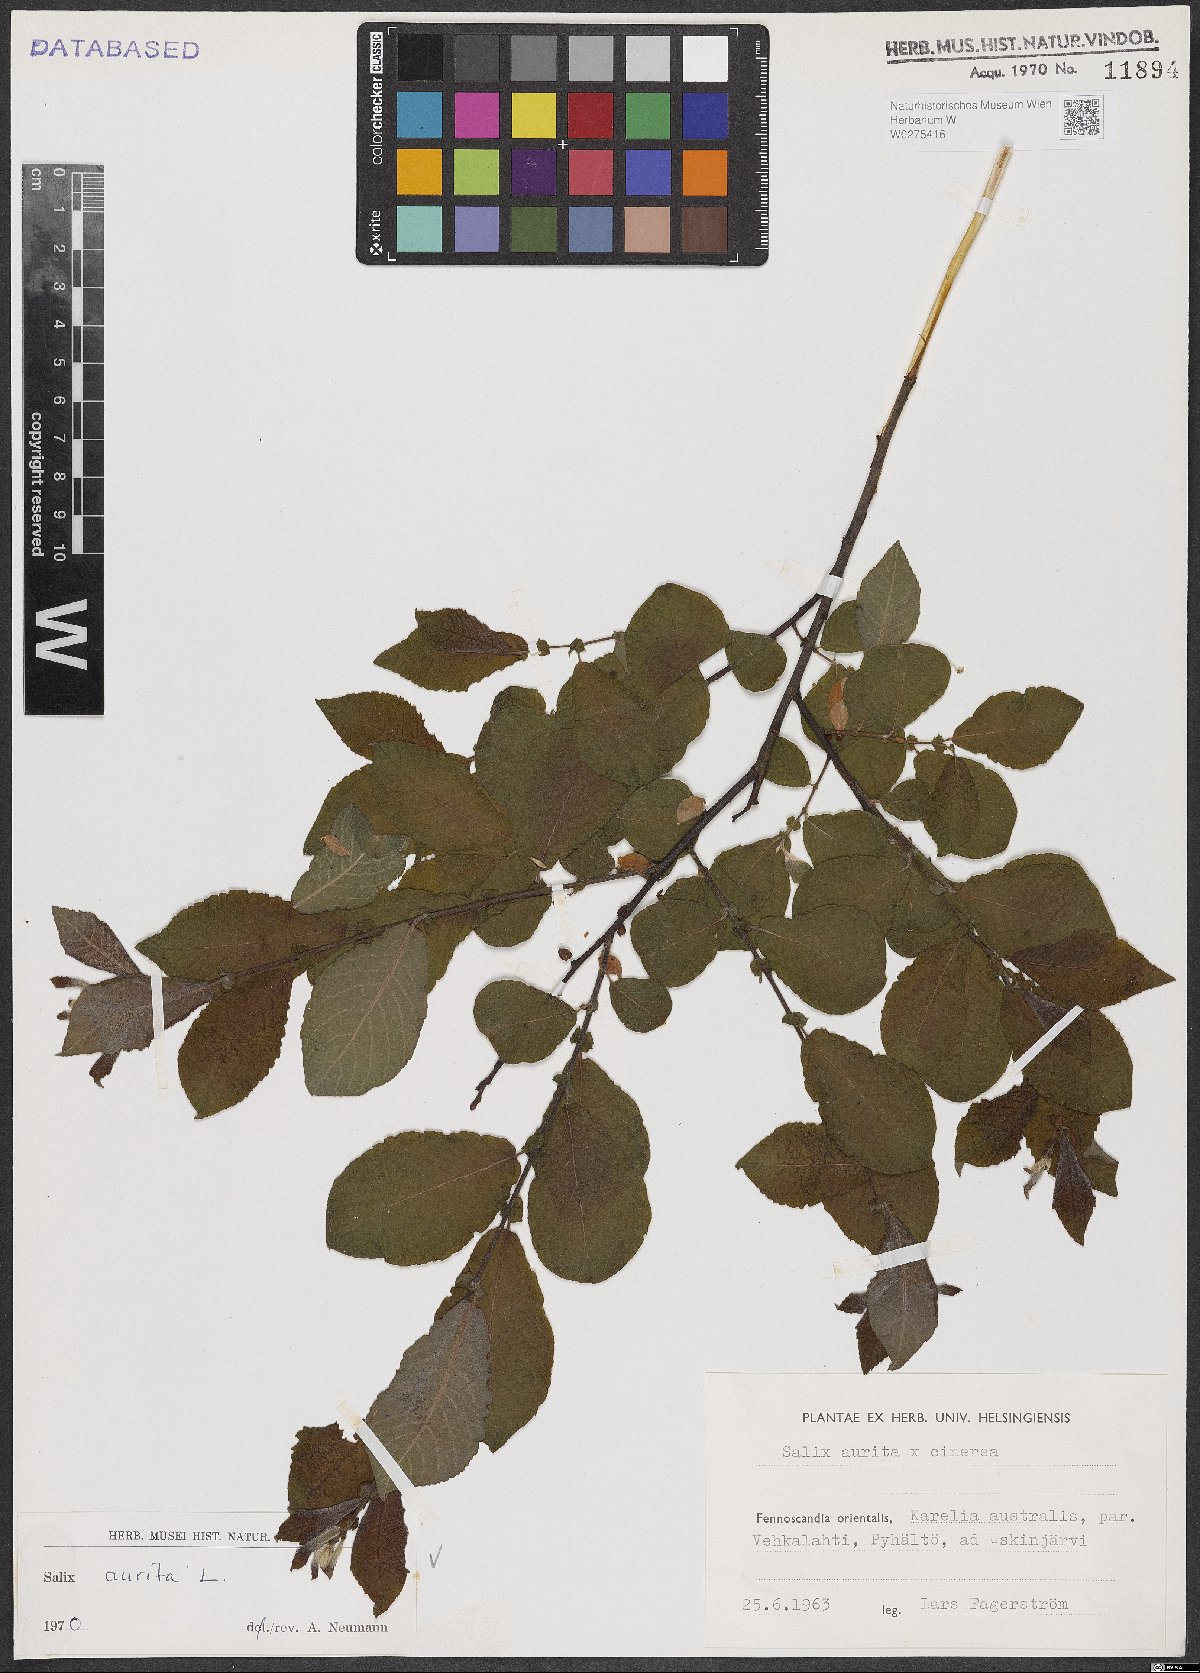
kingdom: Plantae
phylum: Tracheophyta
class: Magnoliopsida
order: Malpighiales
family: Salicaceae
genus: Salix
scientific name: Salix aurita
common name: Eared willow
